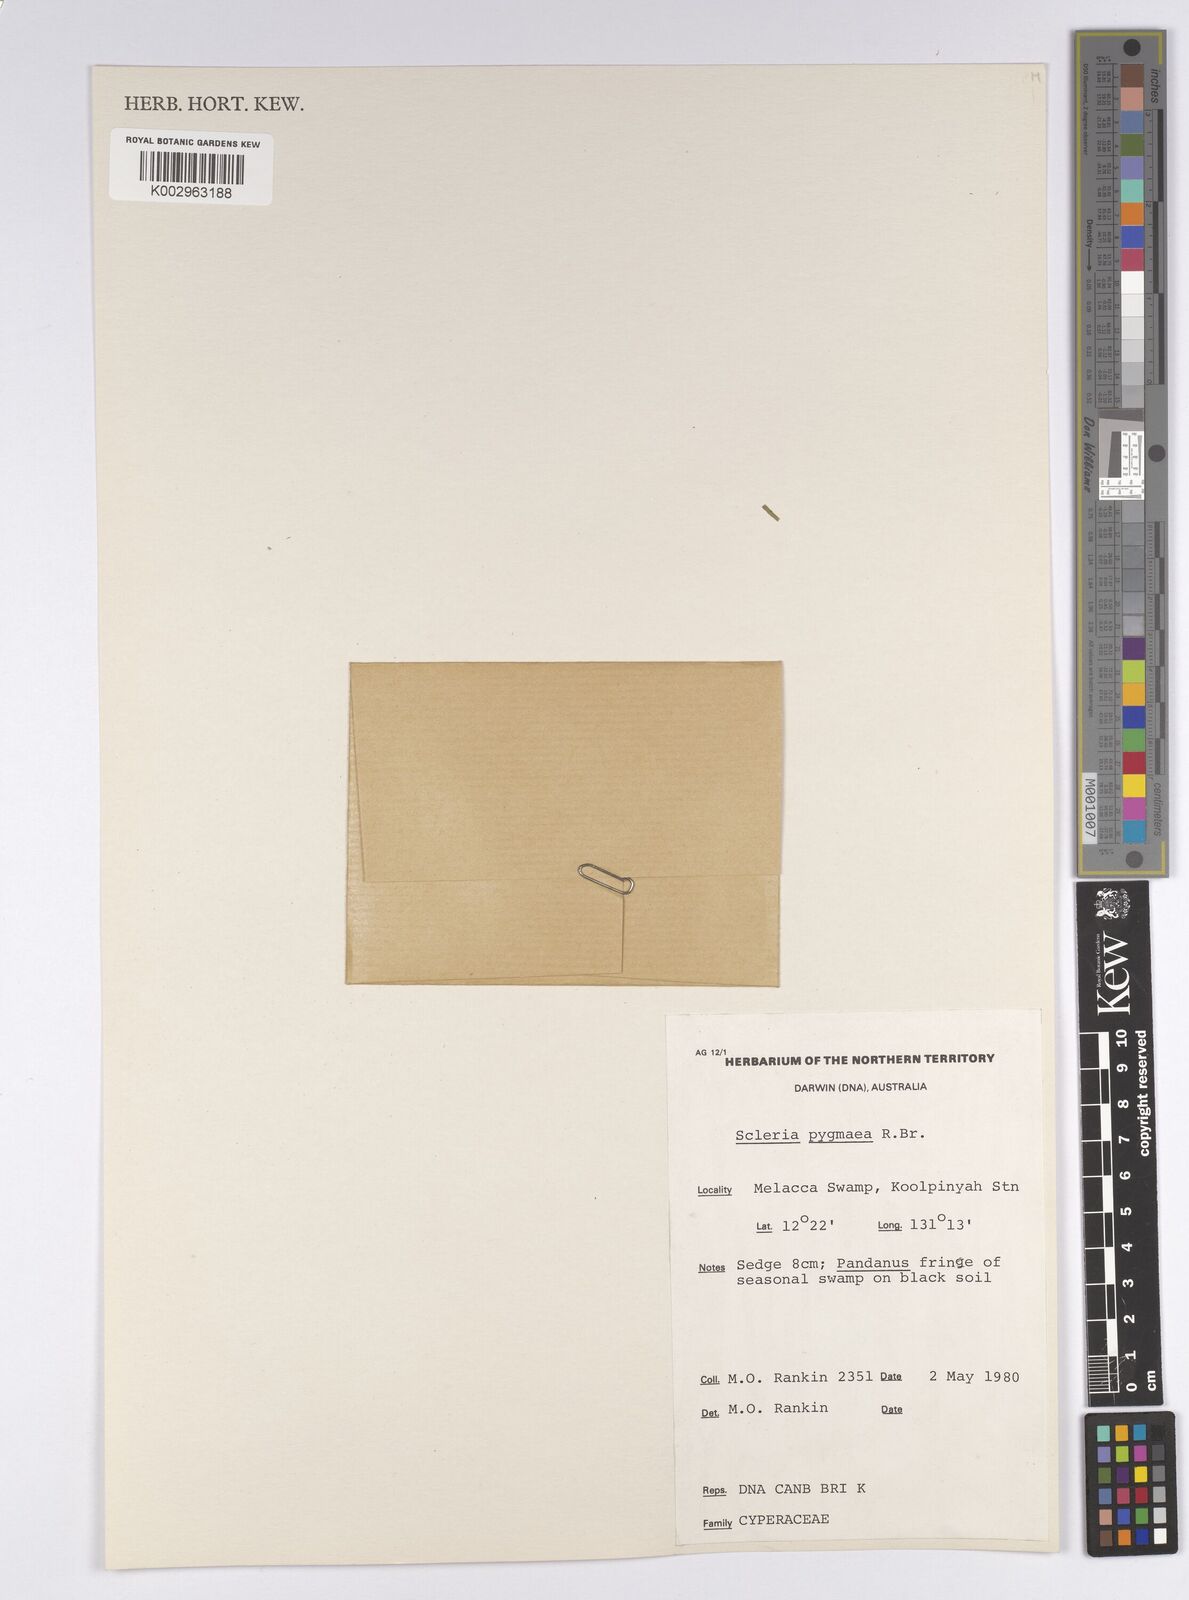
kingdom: Plantae
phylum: Tracheophyta
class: Liliopsida
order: Poales
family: Cyperaceae
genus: Diplacrum
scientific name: Diplacrum pygmaeum
